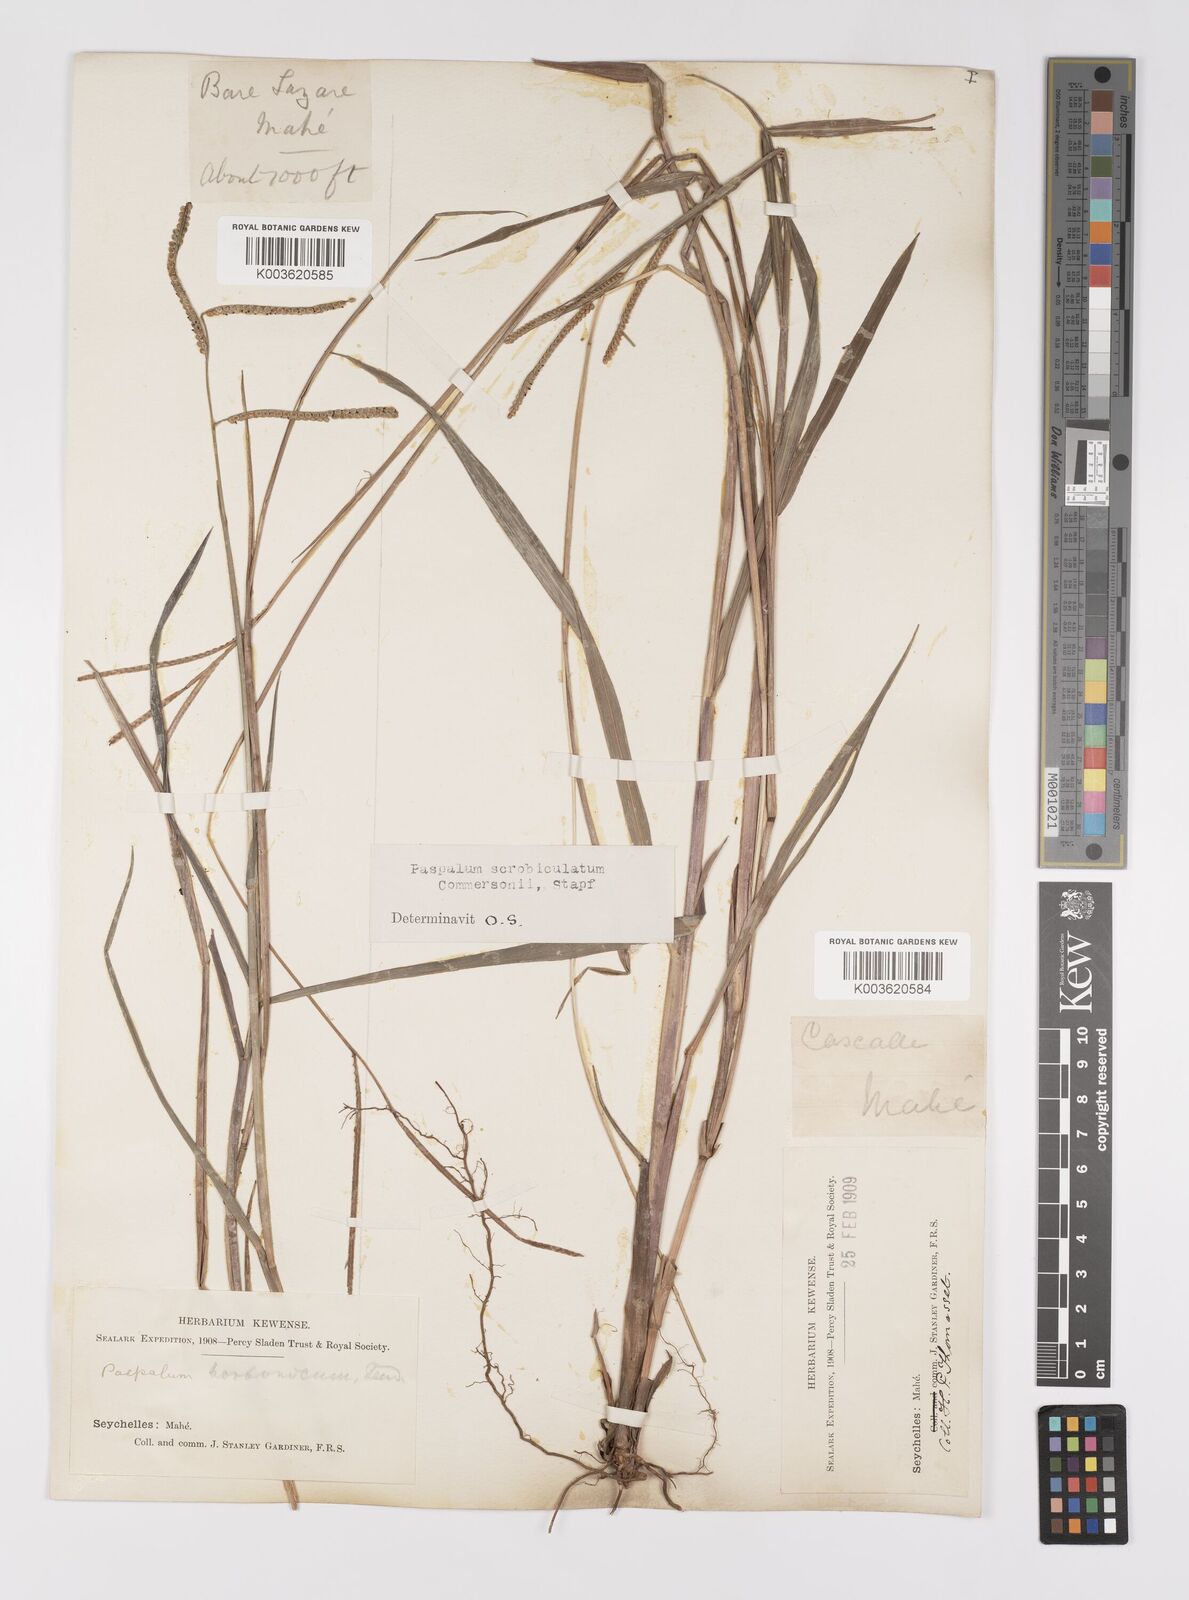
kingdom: Plantae
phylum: Tracheophyta
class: Liliopsida
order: Poales
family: Poaceae
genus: Paspalum
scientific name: Paspalum scrobiculatum
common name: Kodo millet
